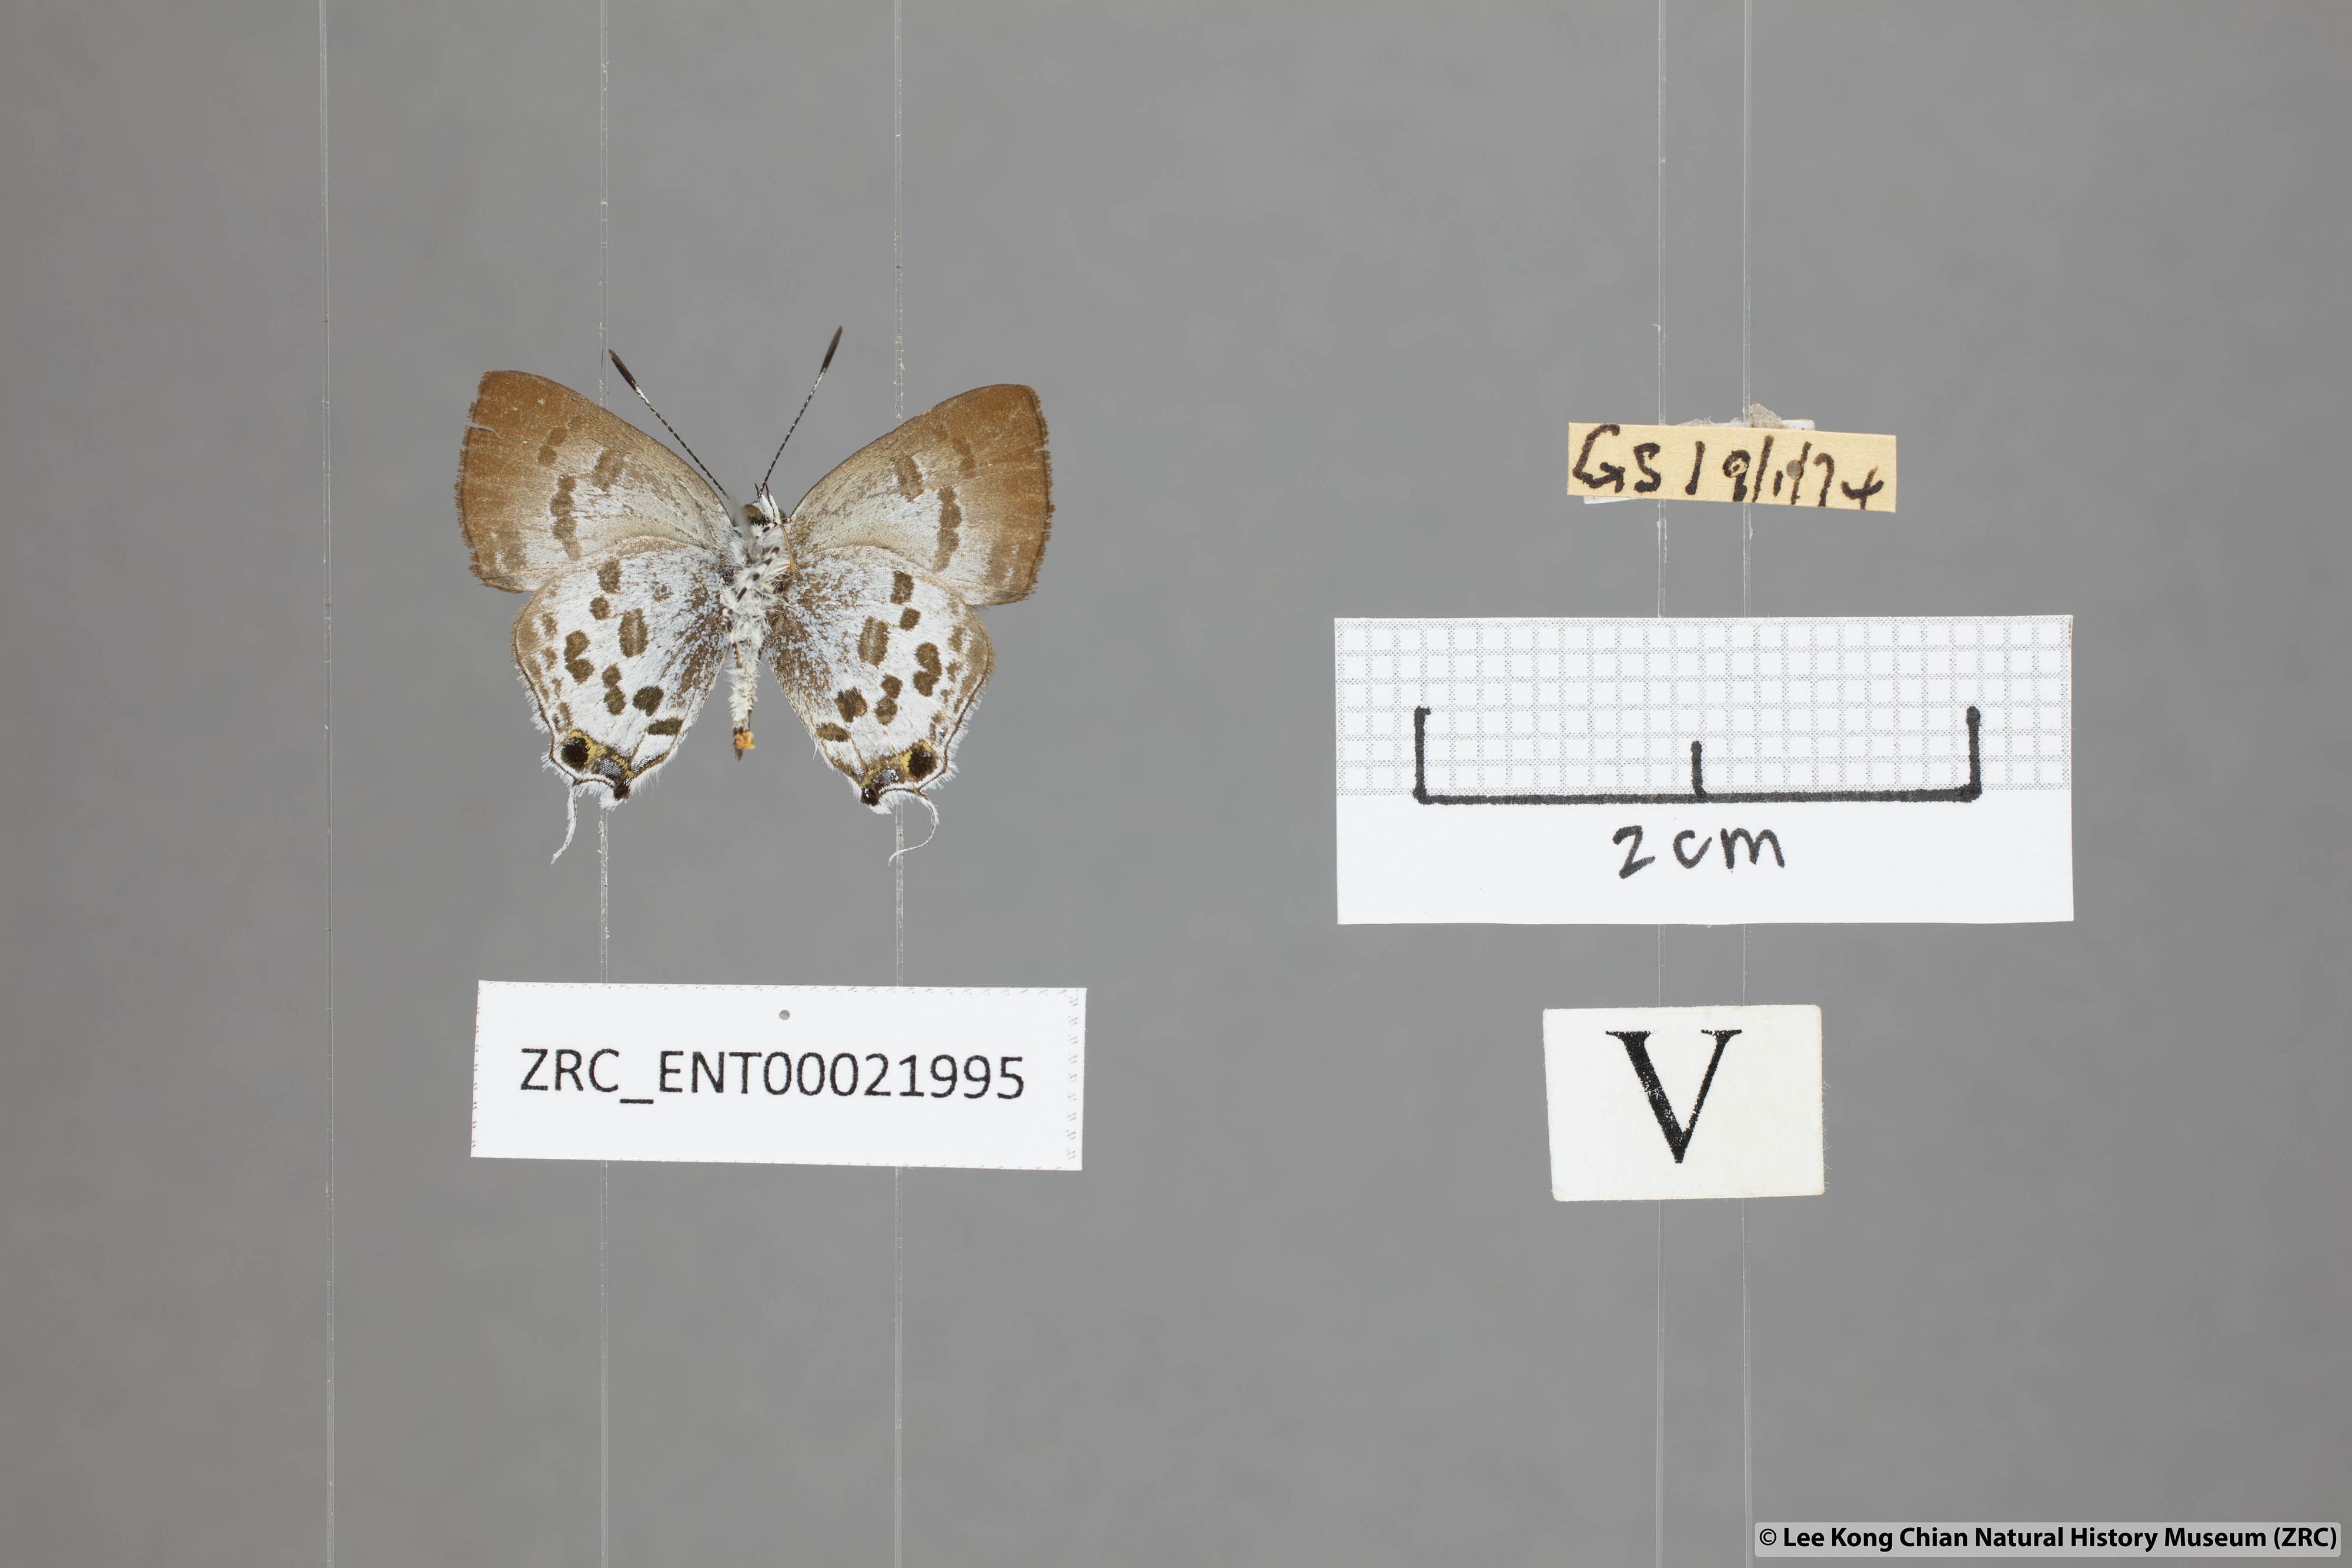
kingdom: Animalia
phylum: Arthropoda
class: Insecta
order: Lepidoptera
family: Lycaenidae
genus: Sinthusa
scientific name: Sinthusa malika
